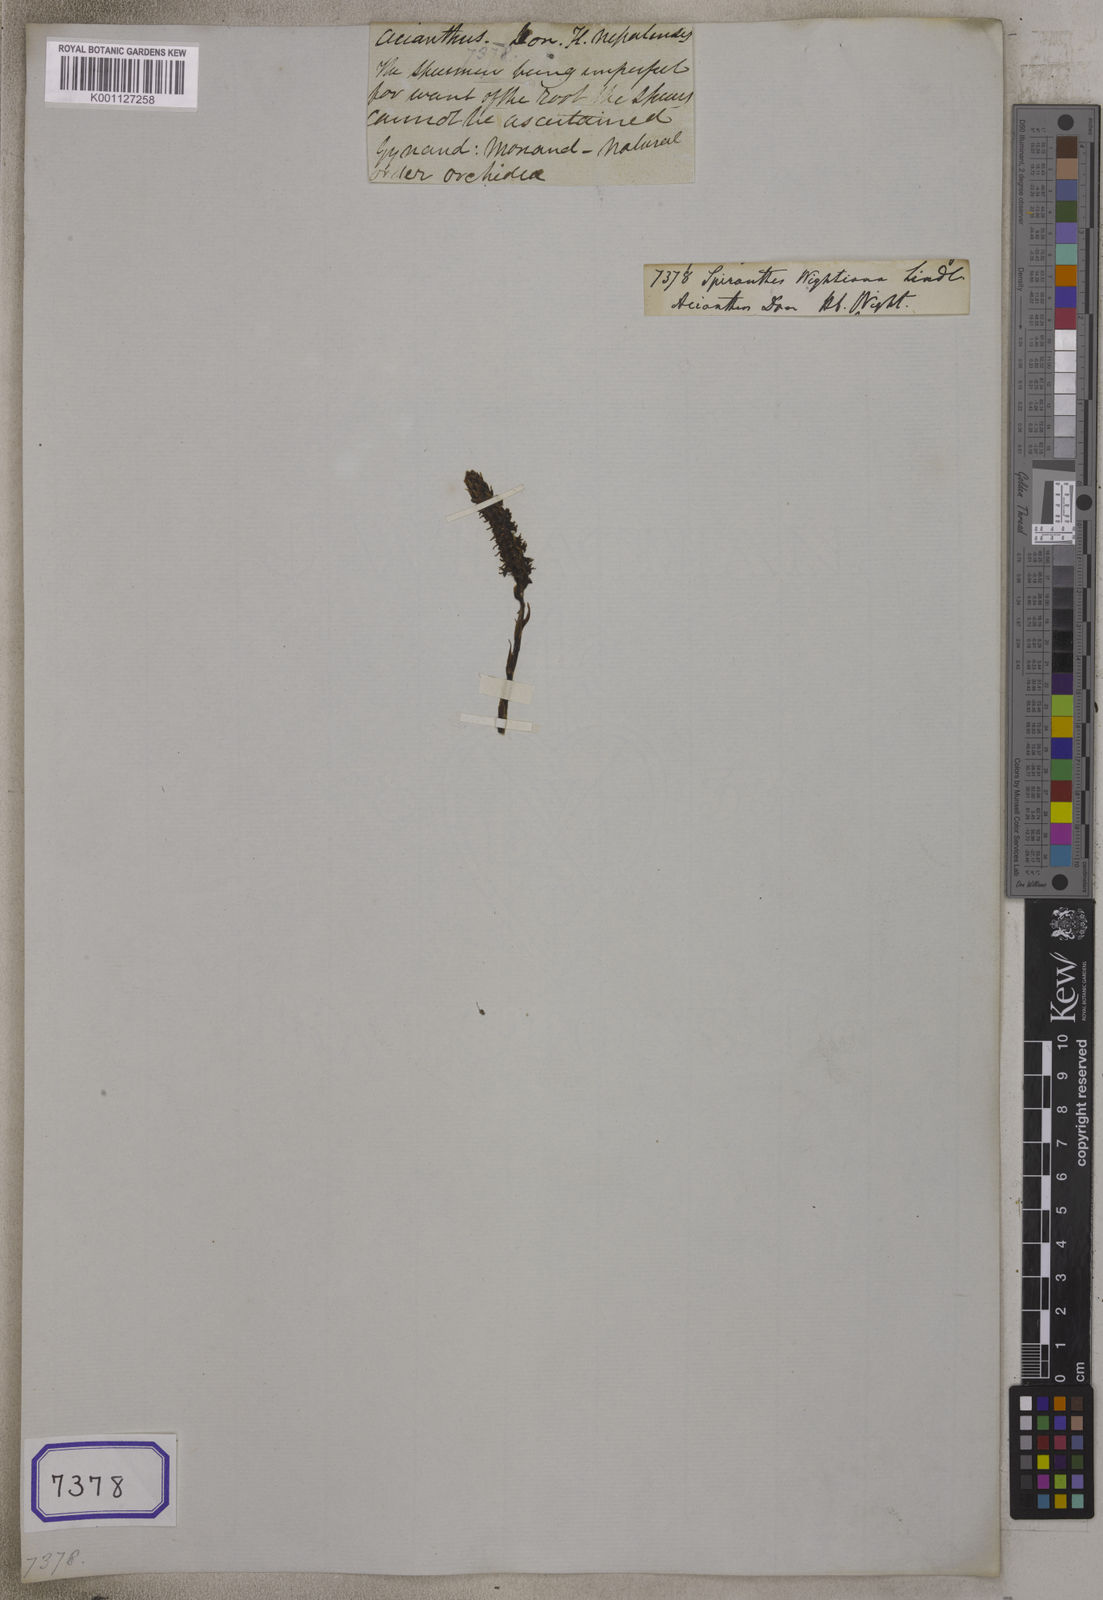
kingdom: Plantae
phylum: Tracheophyta
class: Liliopsida
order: Asparagales
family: Orchidaceae
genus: Spiranthes
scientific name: Spiranthes
